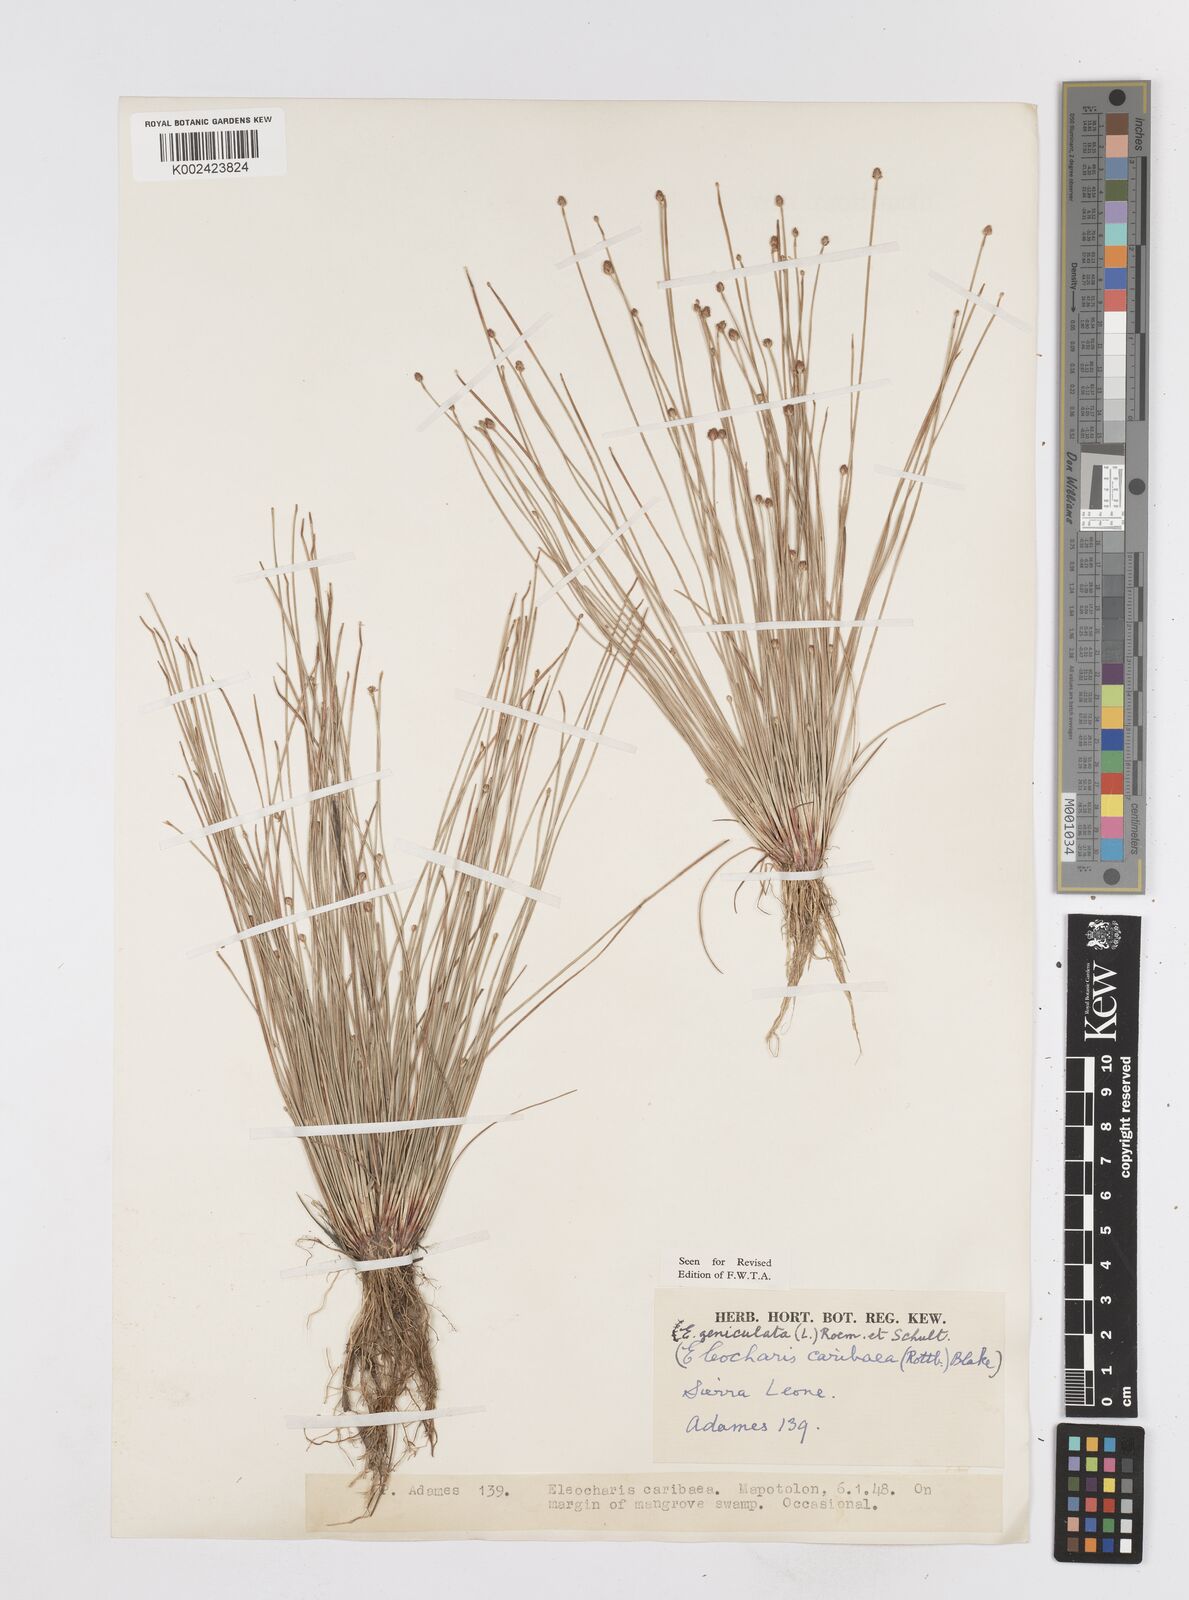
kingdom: Plantae
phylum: Tracheophyta
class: Liliopsida
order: Poales
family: Cyperaceae
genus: Eleocharis
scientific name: Eleocharis geniculata
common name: Canada spikesedge
